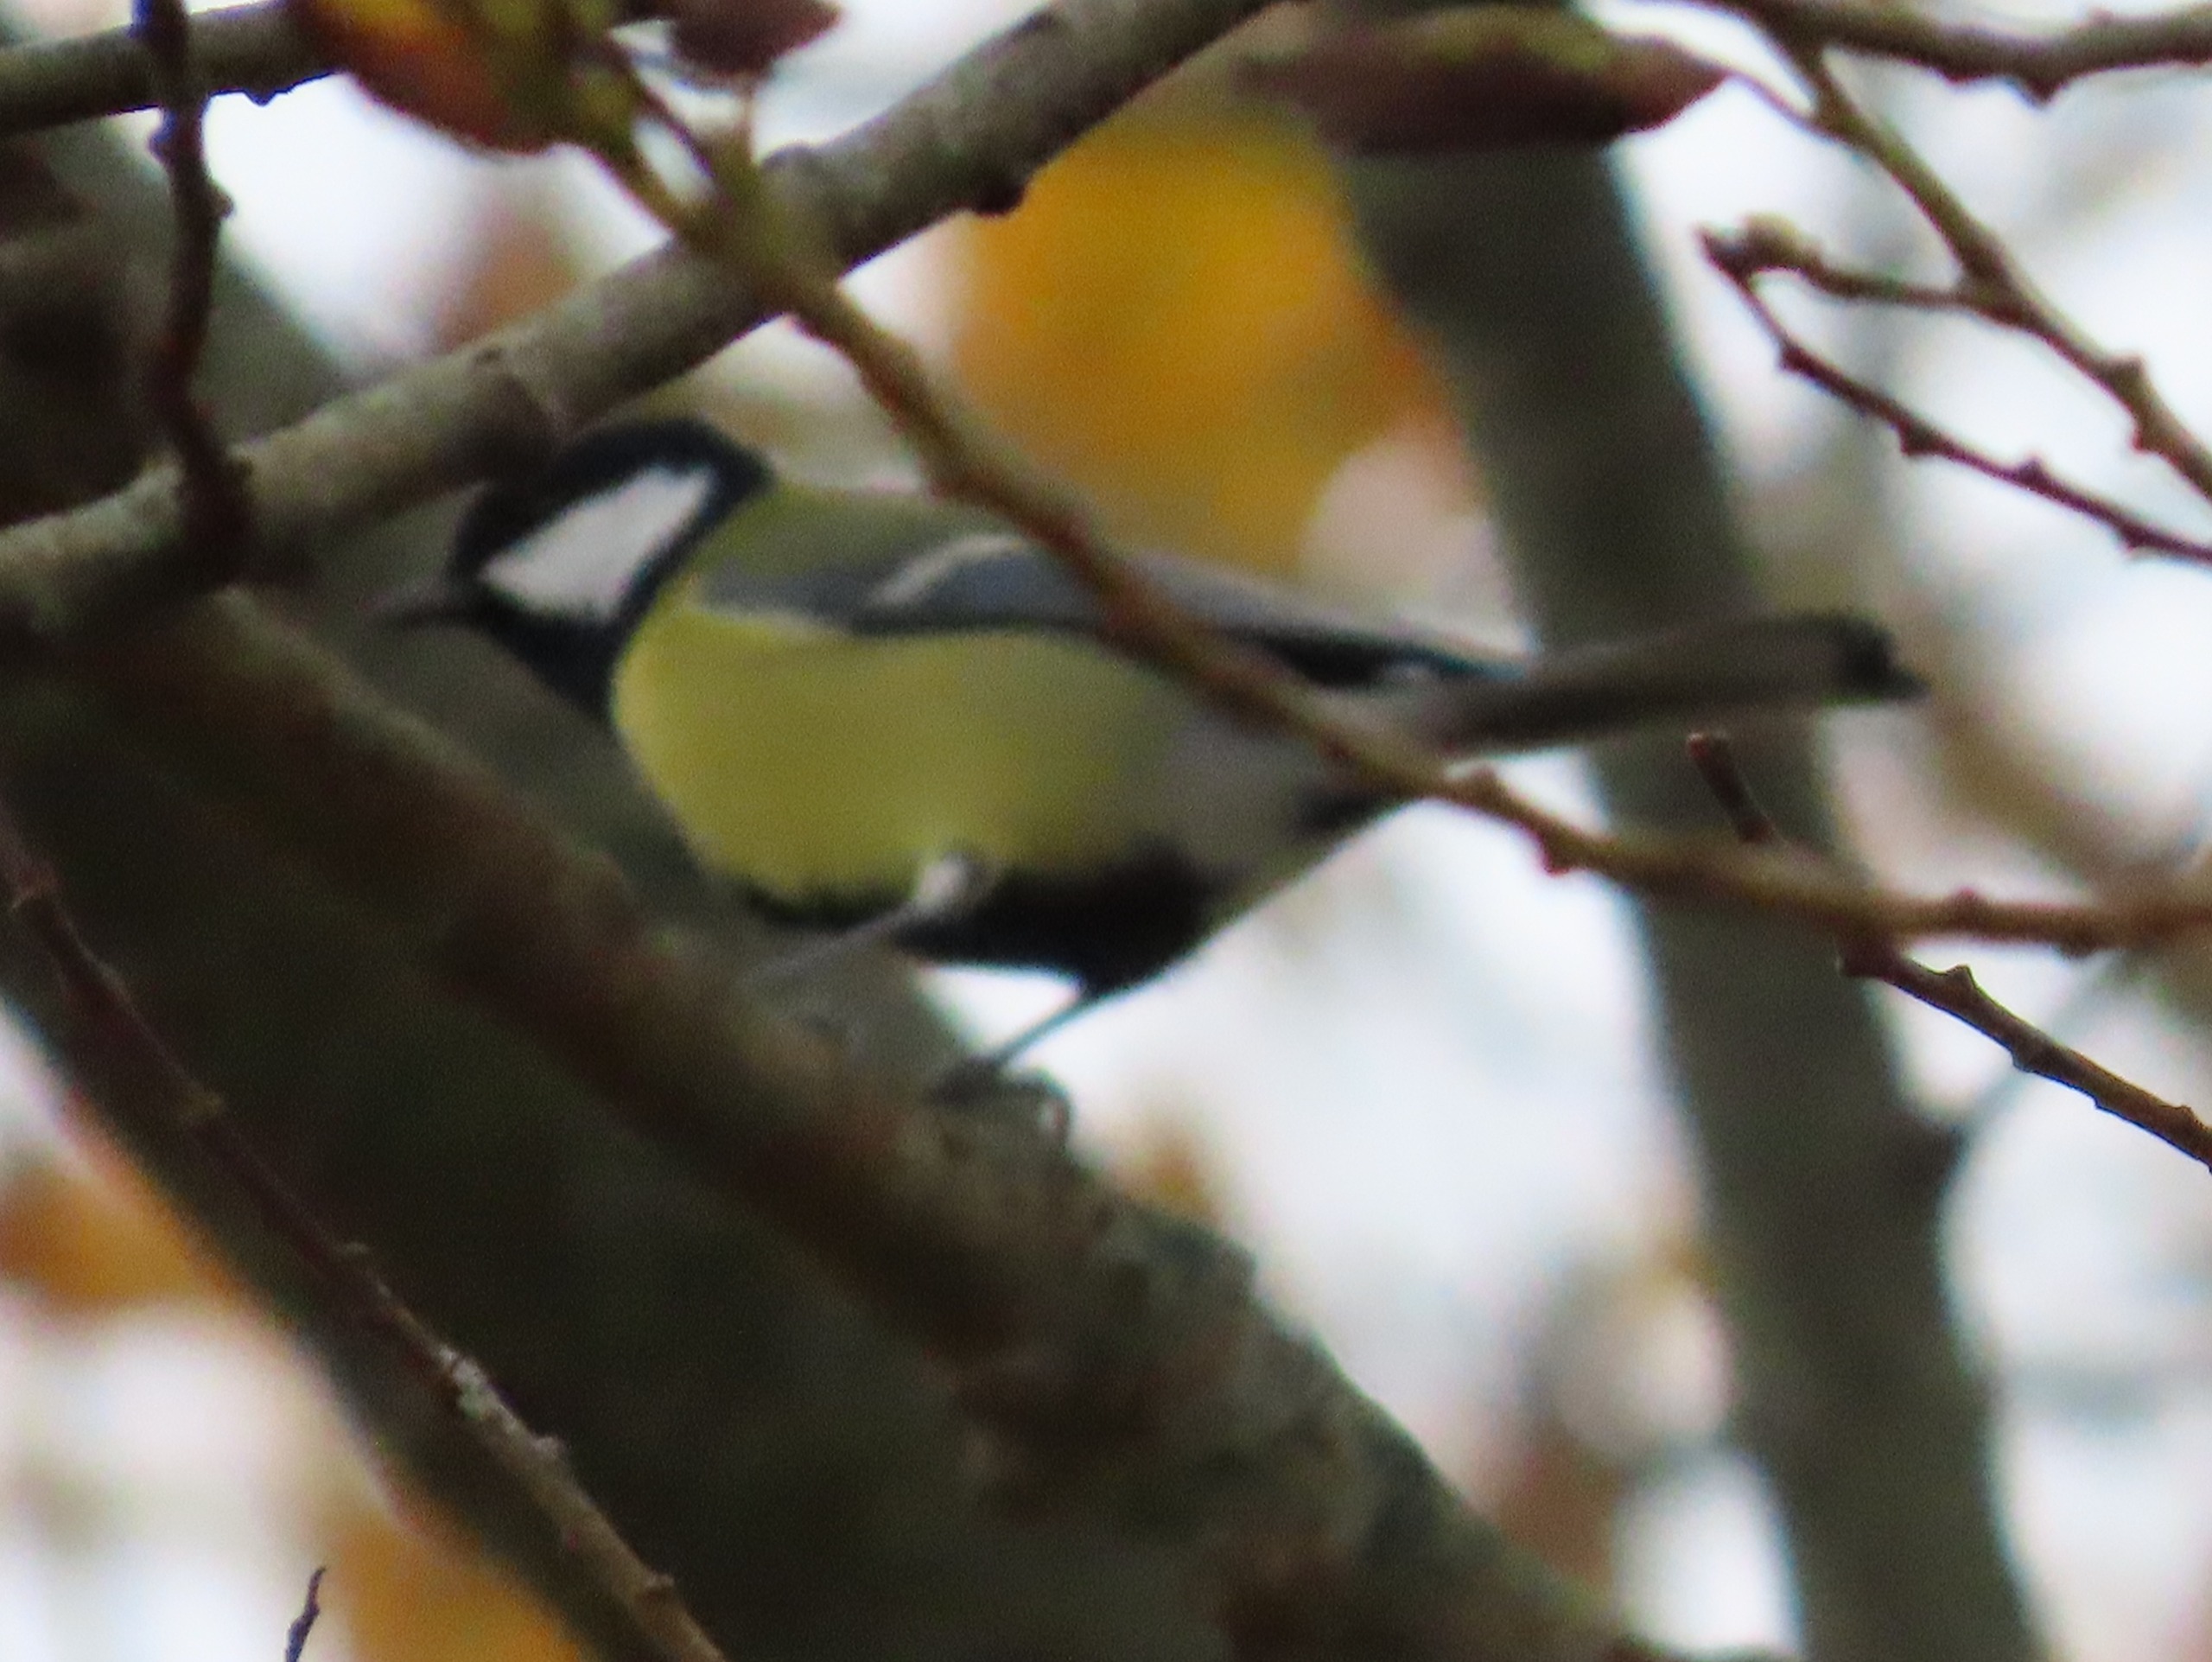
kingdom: Animalia
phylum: Chordata
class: Aves
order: Passeriformes
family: Paridae
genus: Parus
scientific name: Parus major
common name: Musvit
